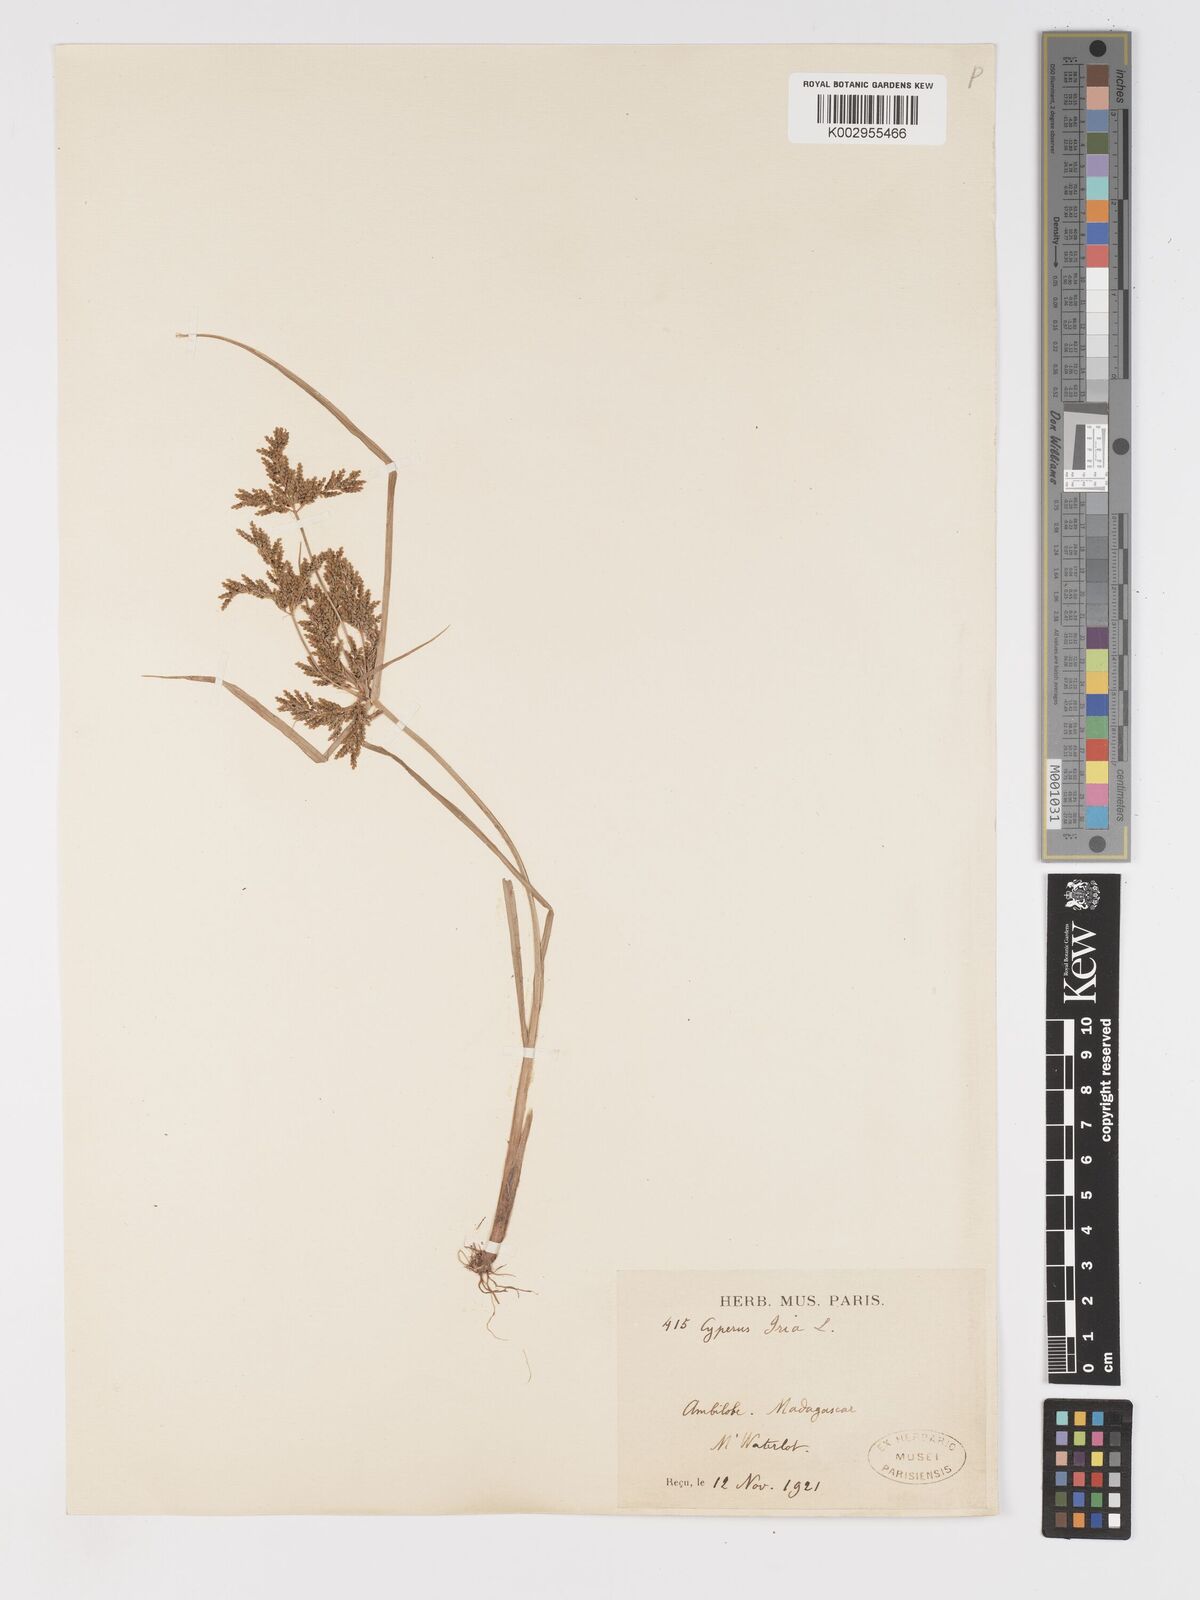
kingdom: Plantae
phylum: Tracheophyta
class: Liliopsida
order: Poales
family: Cyperaceae
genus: Cyperus
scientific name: Cyperus iria
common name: Ricefield flatsedge
